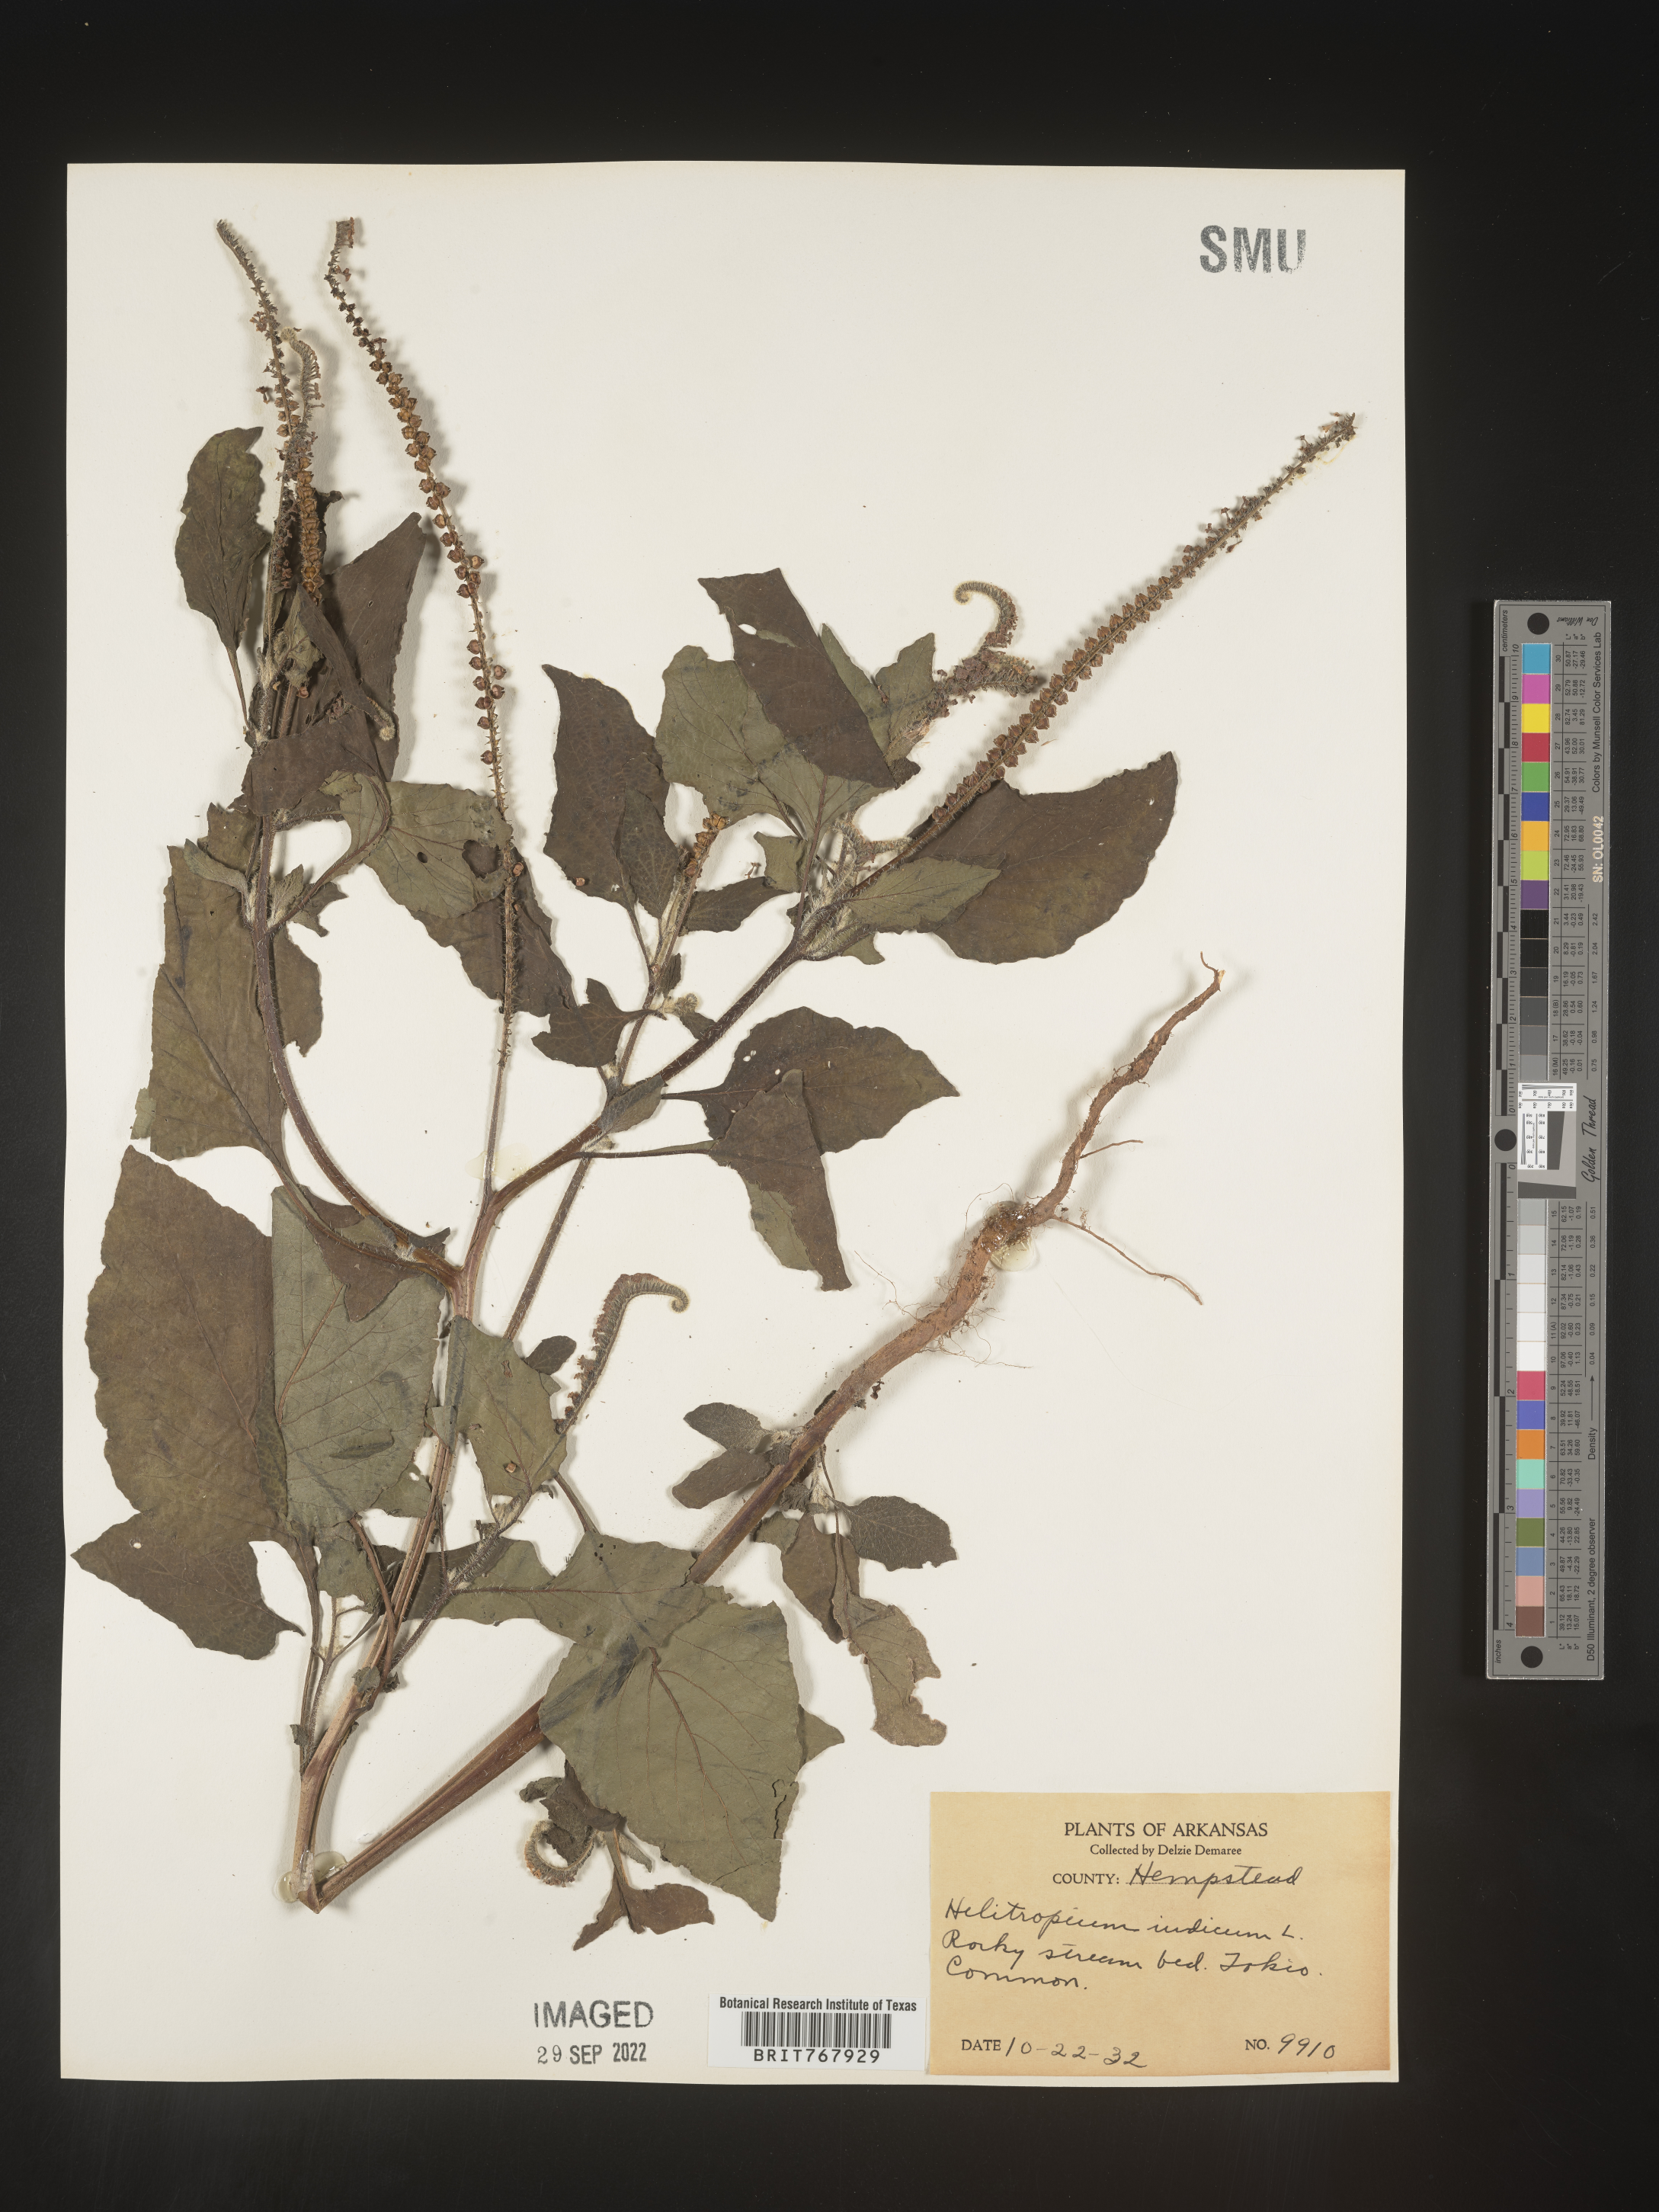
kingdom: Plantae
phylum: Tracheophyta
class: Magnoliopsida
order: Boraginales
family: Heliotropiaceae
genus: Heliotropium
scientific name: Heliotropium indicum
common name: Indian heliotrope
